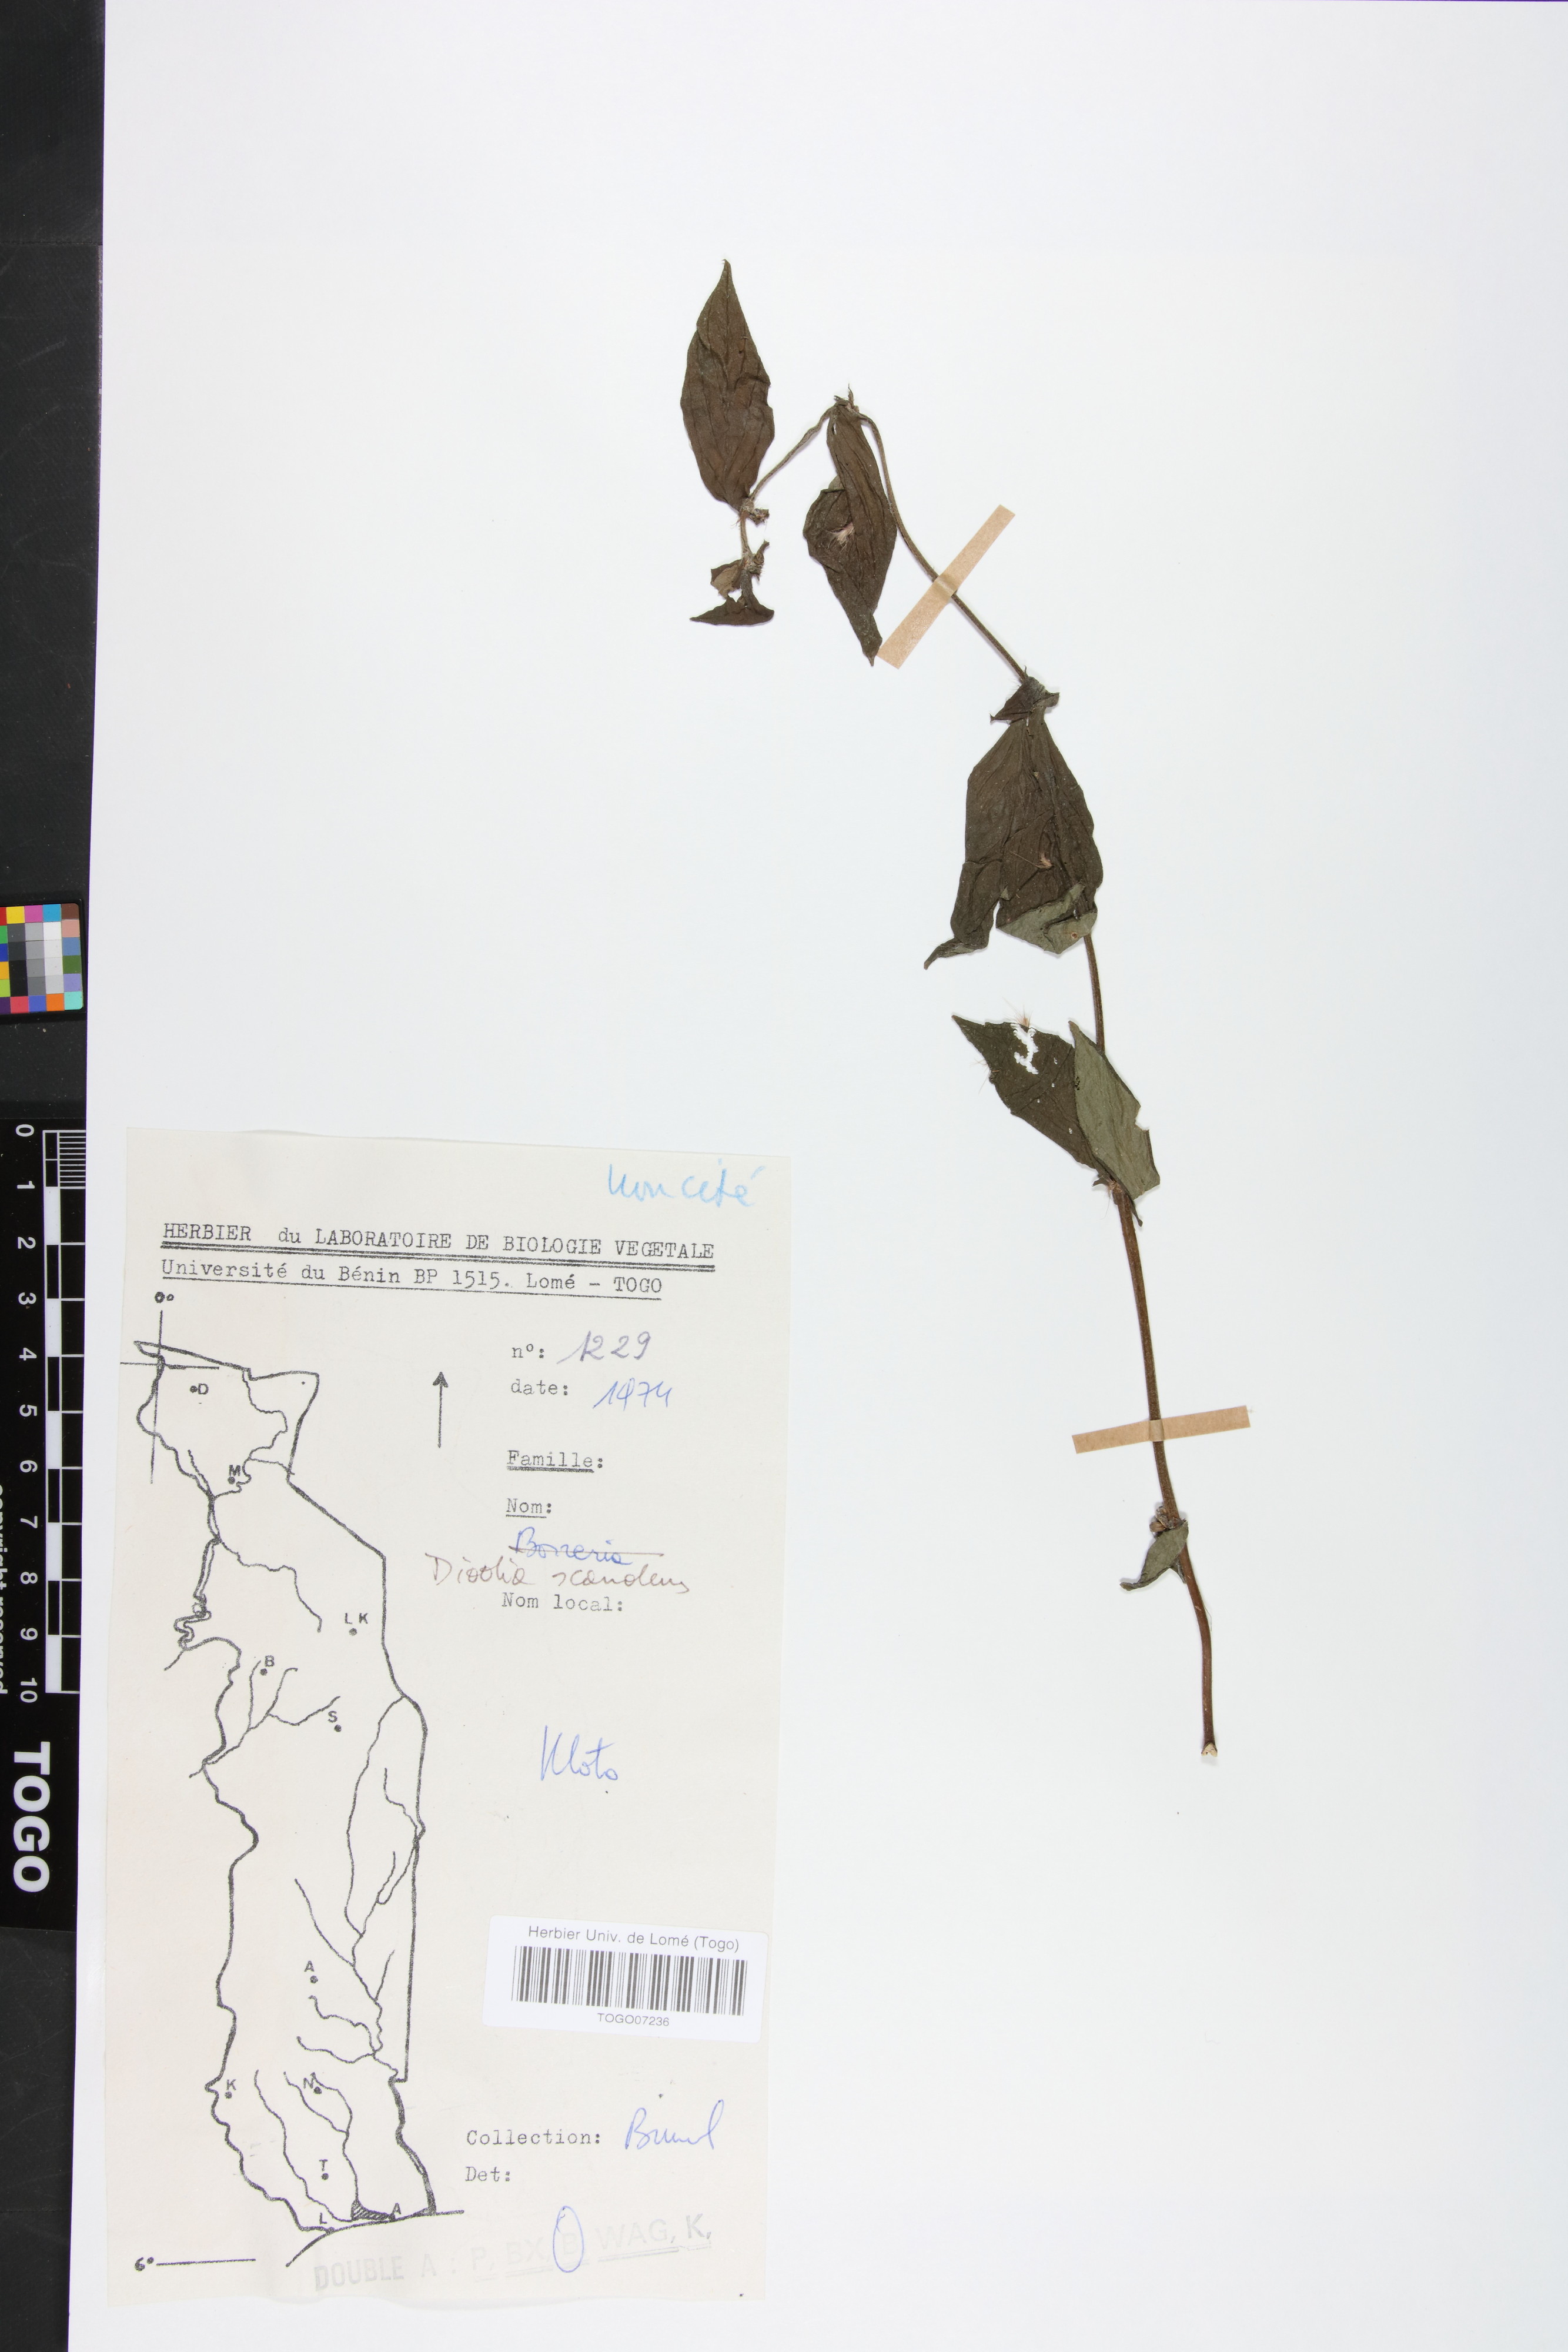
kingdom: Plantae
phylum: Tracheophyta
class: Magnoliopsida
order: Gentianales
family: Rubiaceae
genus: Hexasepalum
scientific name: Hexasepalum scandens
